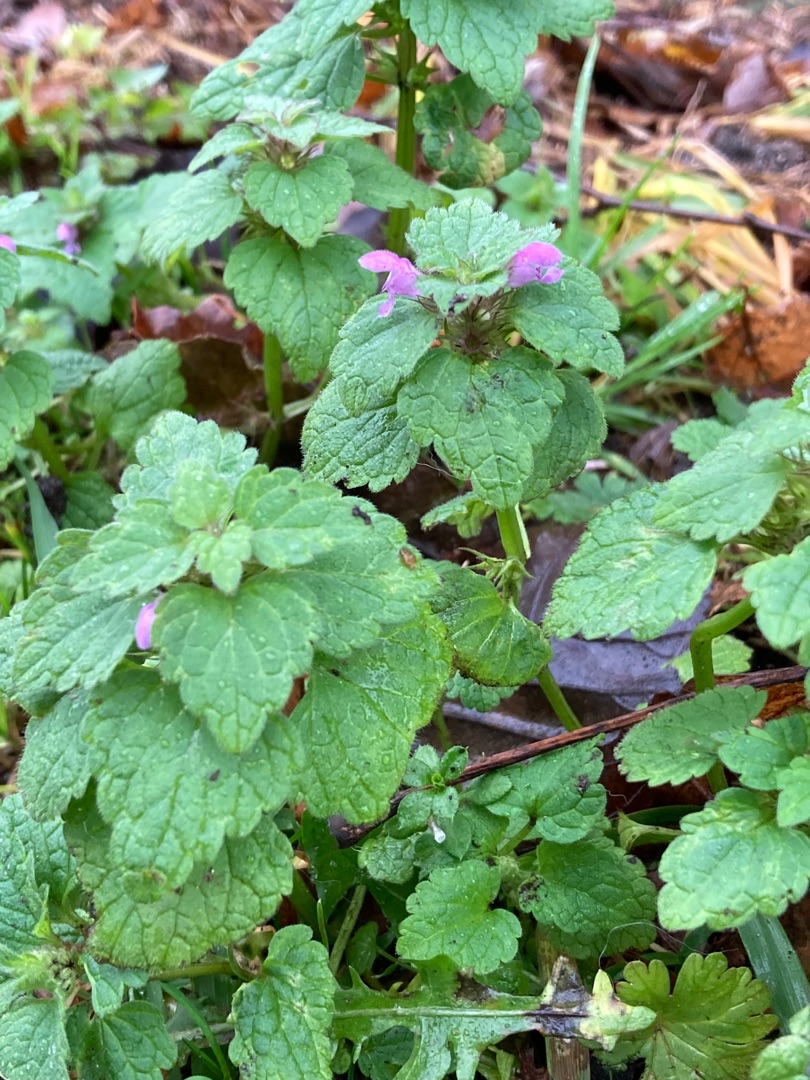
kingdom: Plantae
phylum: Tracheophyta
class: Magnoliopsida
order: Lamiales
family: Lamiaceae
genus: Lamium
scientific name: Lamium purpureum
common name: Rød tvetand
